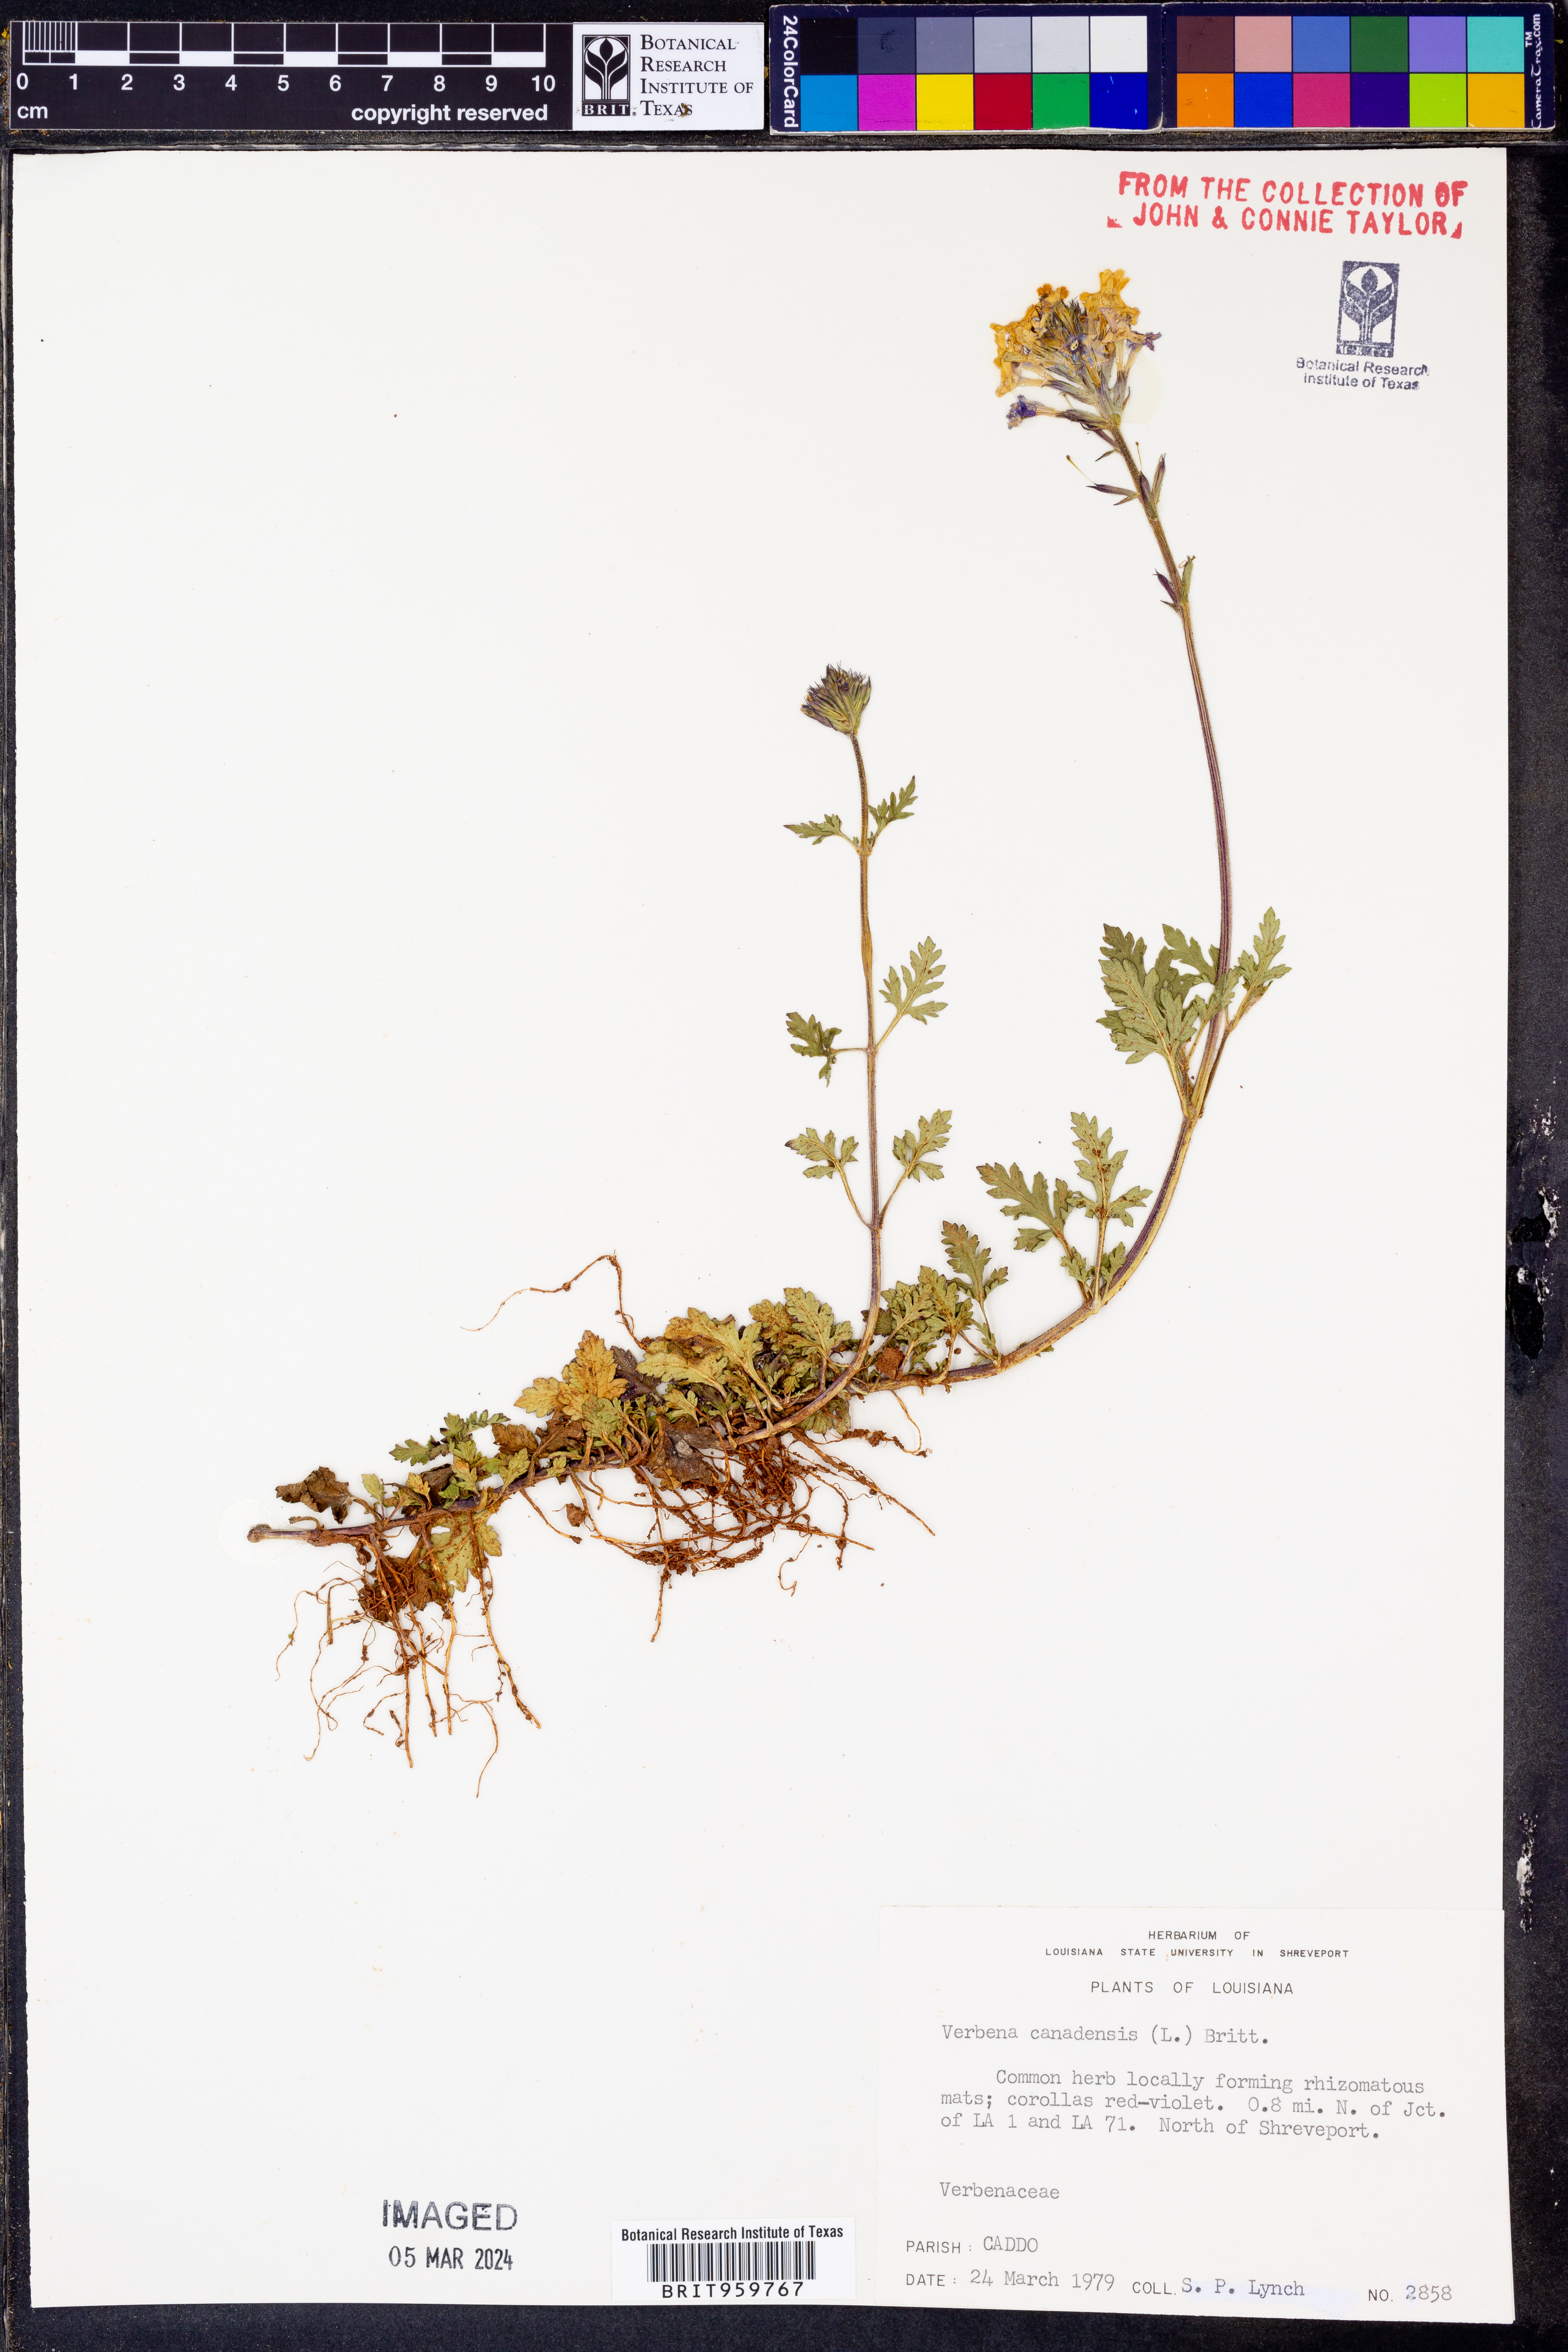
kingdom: Plantae
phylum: Tracheophyta
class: Magnoliopsida
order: Lamiales
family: Verbenaceae
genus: Verbena
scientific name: Verbena canadensis
